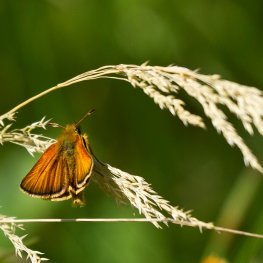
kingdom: Animalia
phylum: Arthropoda
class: Insecta
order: Lepidoptera
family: Hesperiidae
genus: Thymelicus
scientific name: Thymelicus lineola
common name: European Skipper
